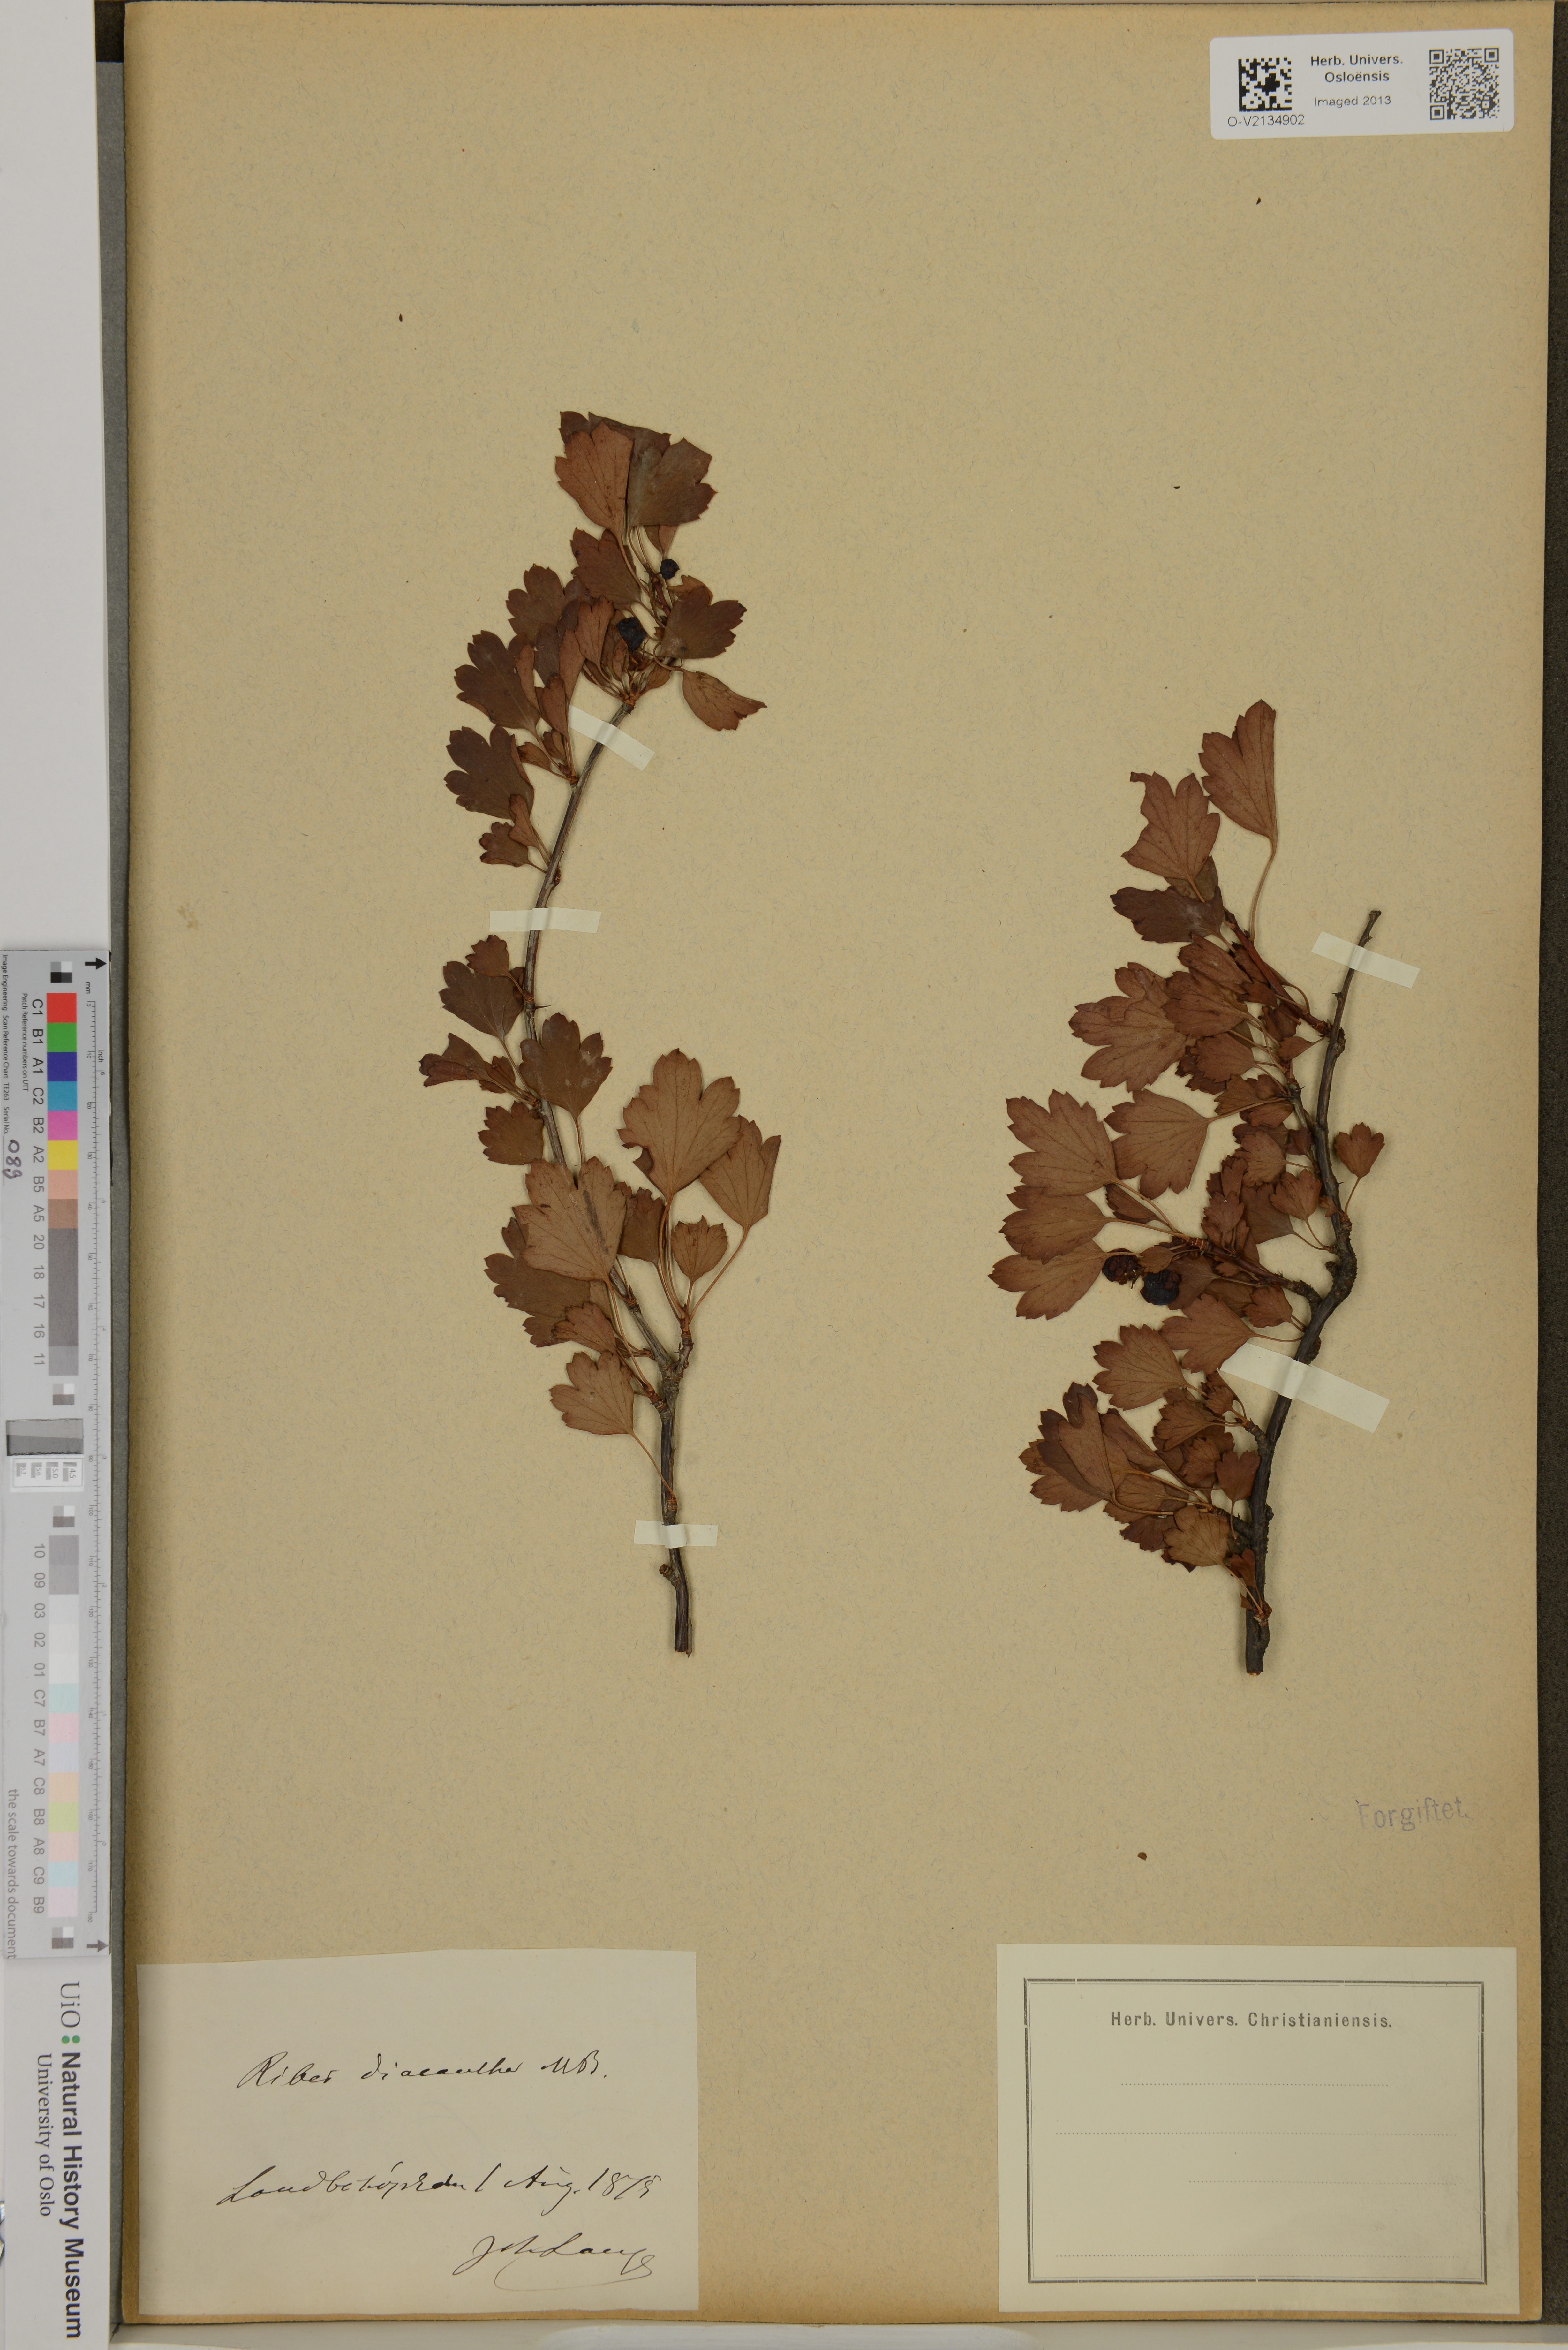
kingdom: Plantae
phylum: Tracheophyta
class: Magnoliopsida
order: Saxifragales
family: Grossulariaceae
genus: Ribes
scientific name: Ribes diacanthum
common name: Siberian currant
